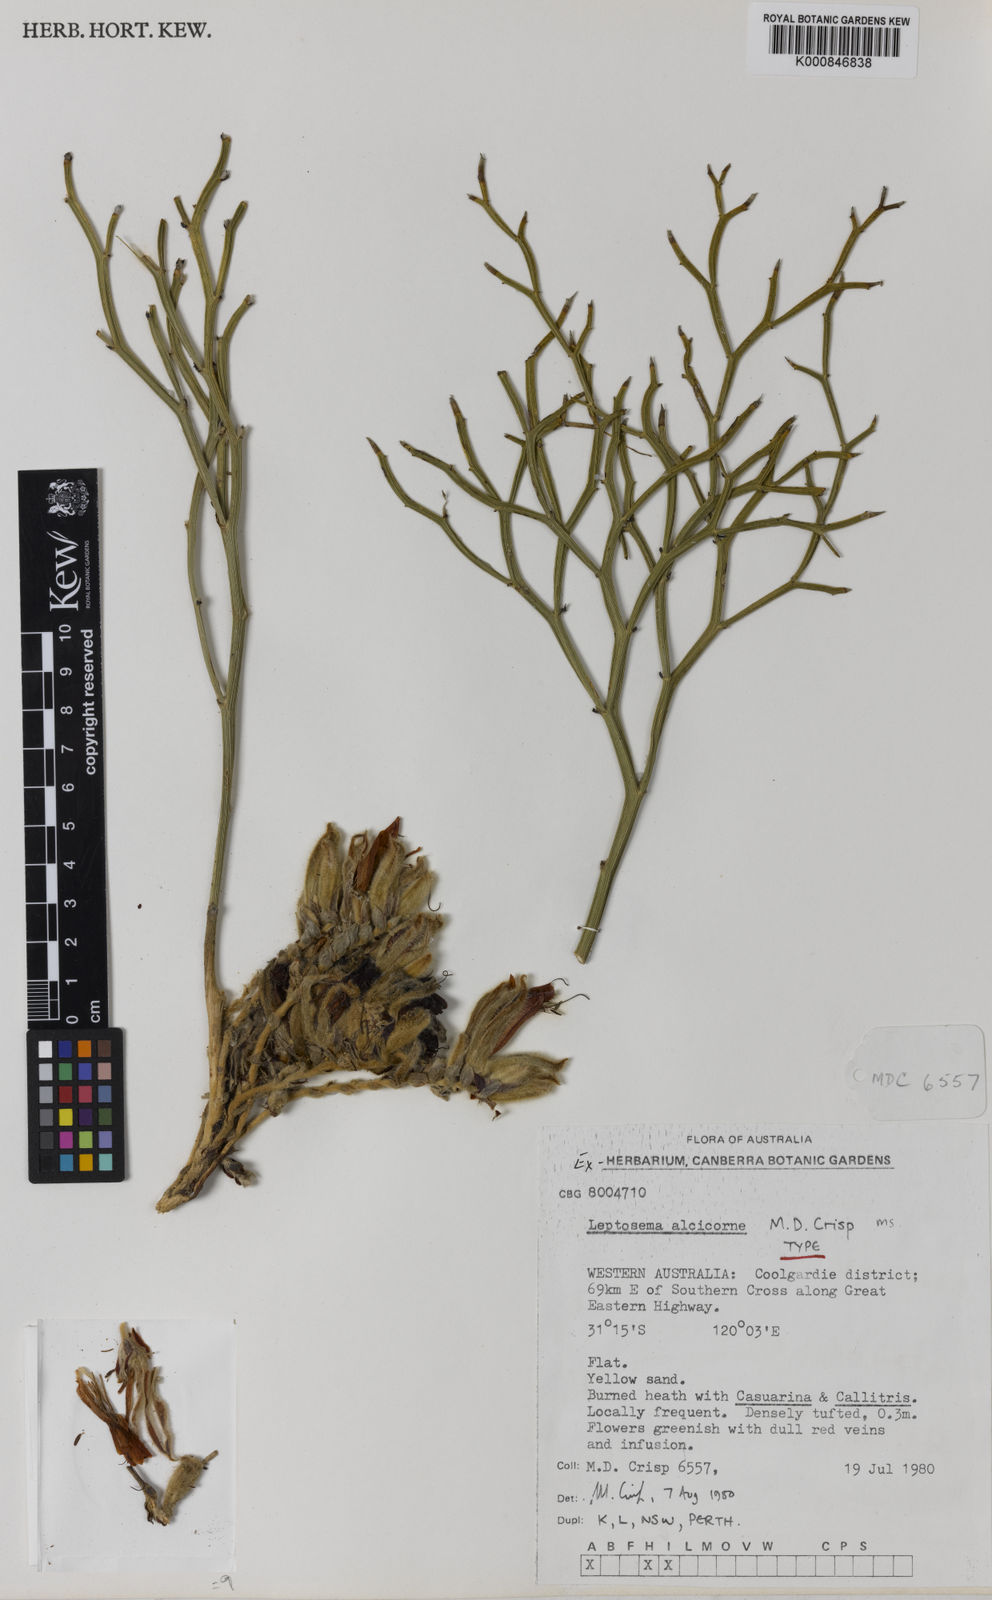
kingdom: Plantae
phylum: Tracheophyta
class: Magnoliopsida
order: Fabales
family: Fabaceae
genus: Leptosema
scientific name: Leptosema
